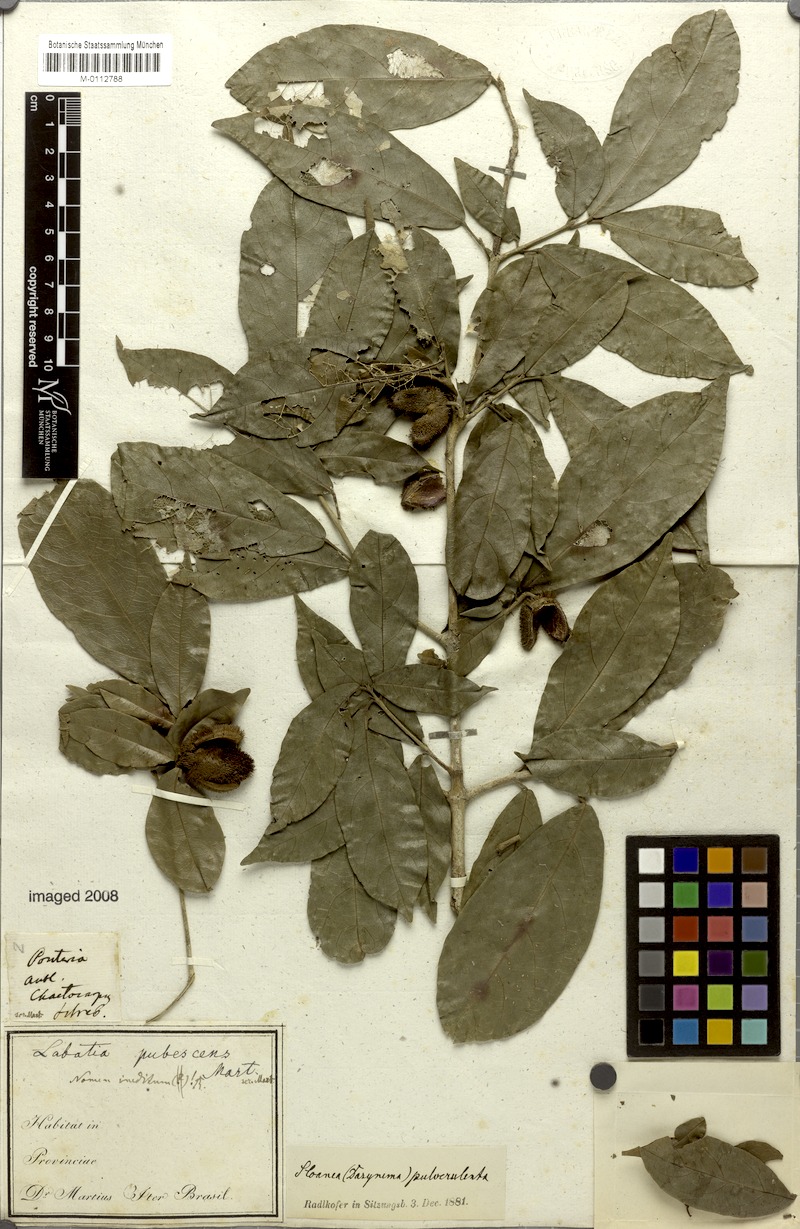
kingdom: Plantae
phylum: Tracheophyta
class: Magnoliopsida
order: Oxalidales
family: Elaeocarpaceae
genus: Sloanea
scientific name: Sloanea hirsuta
